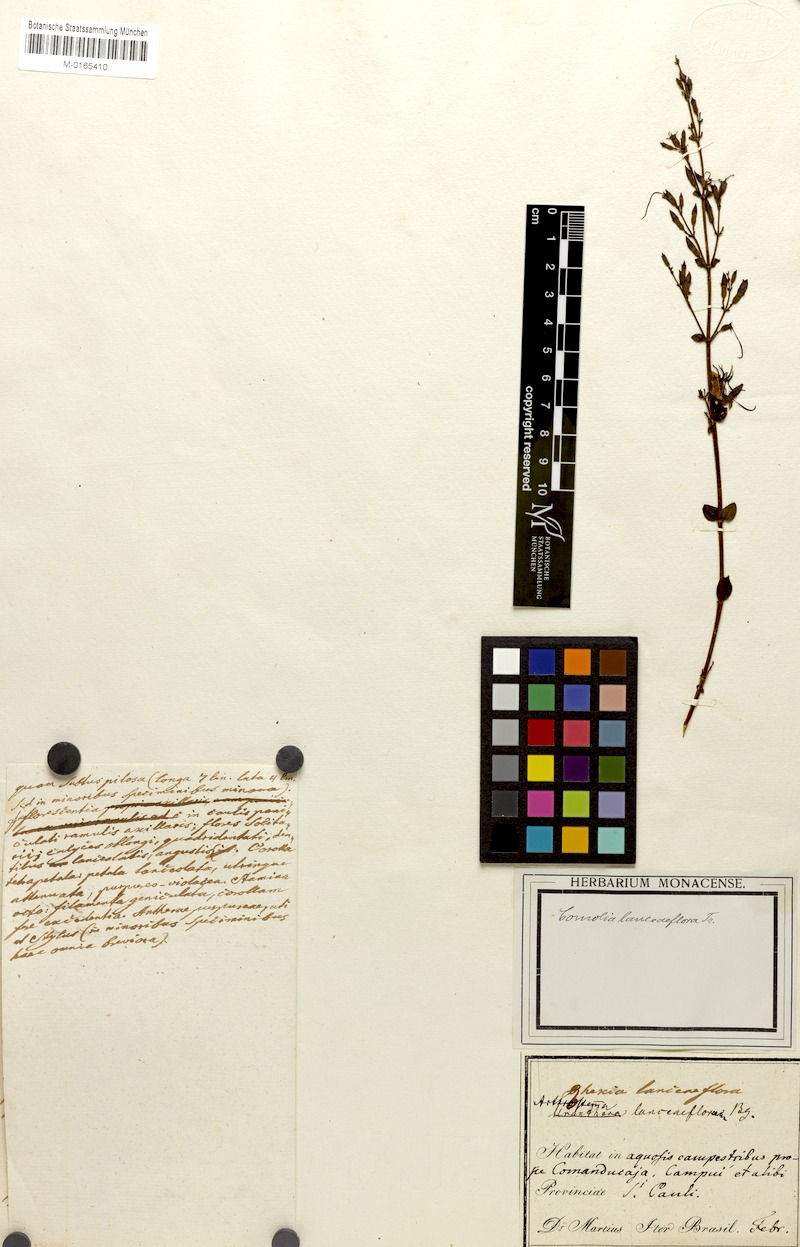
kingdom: Plantae
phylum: Tracheophyta
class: Magnoliopsida
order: Myrtales
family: Melastomataceae
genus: Fritzschia
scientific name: Fritzschia lanceiflora
